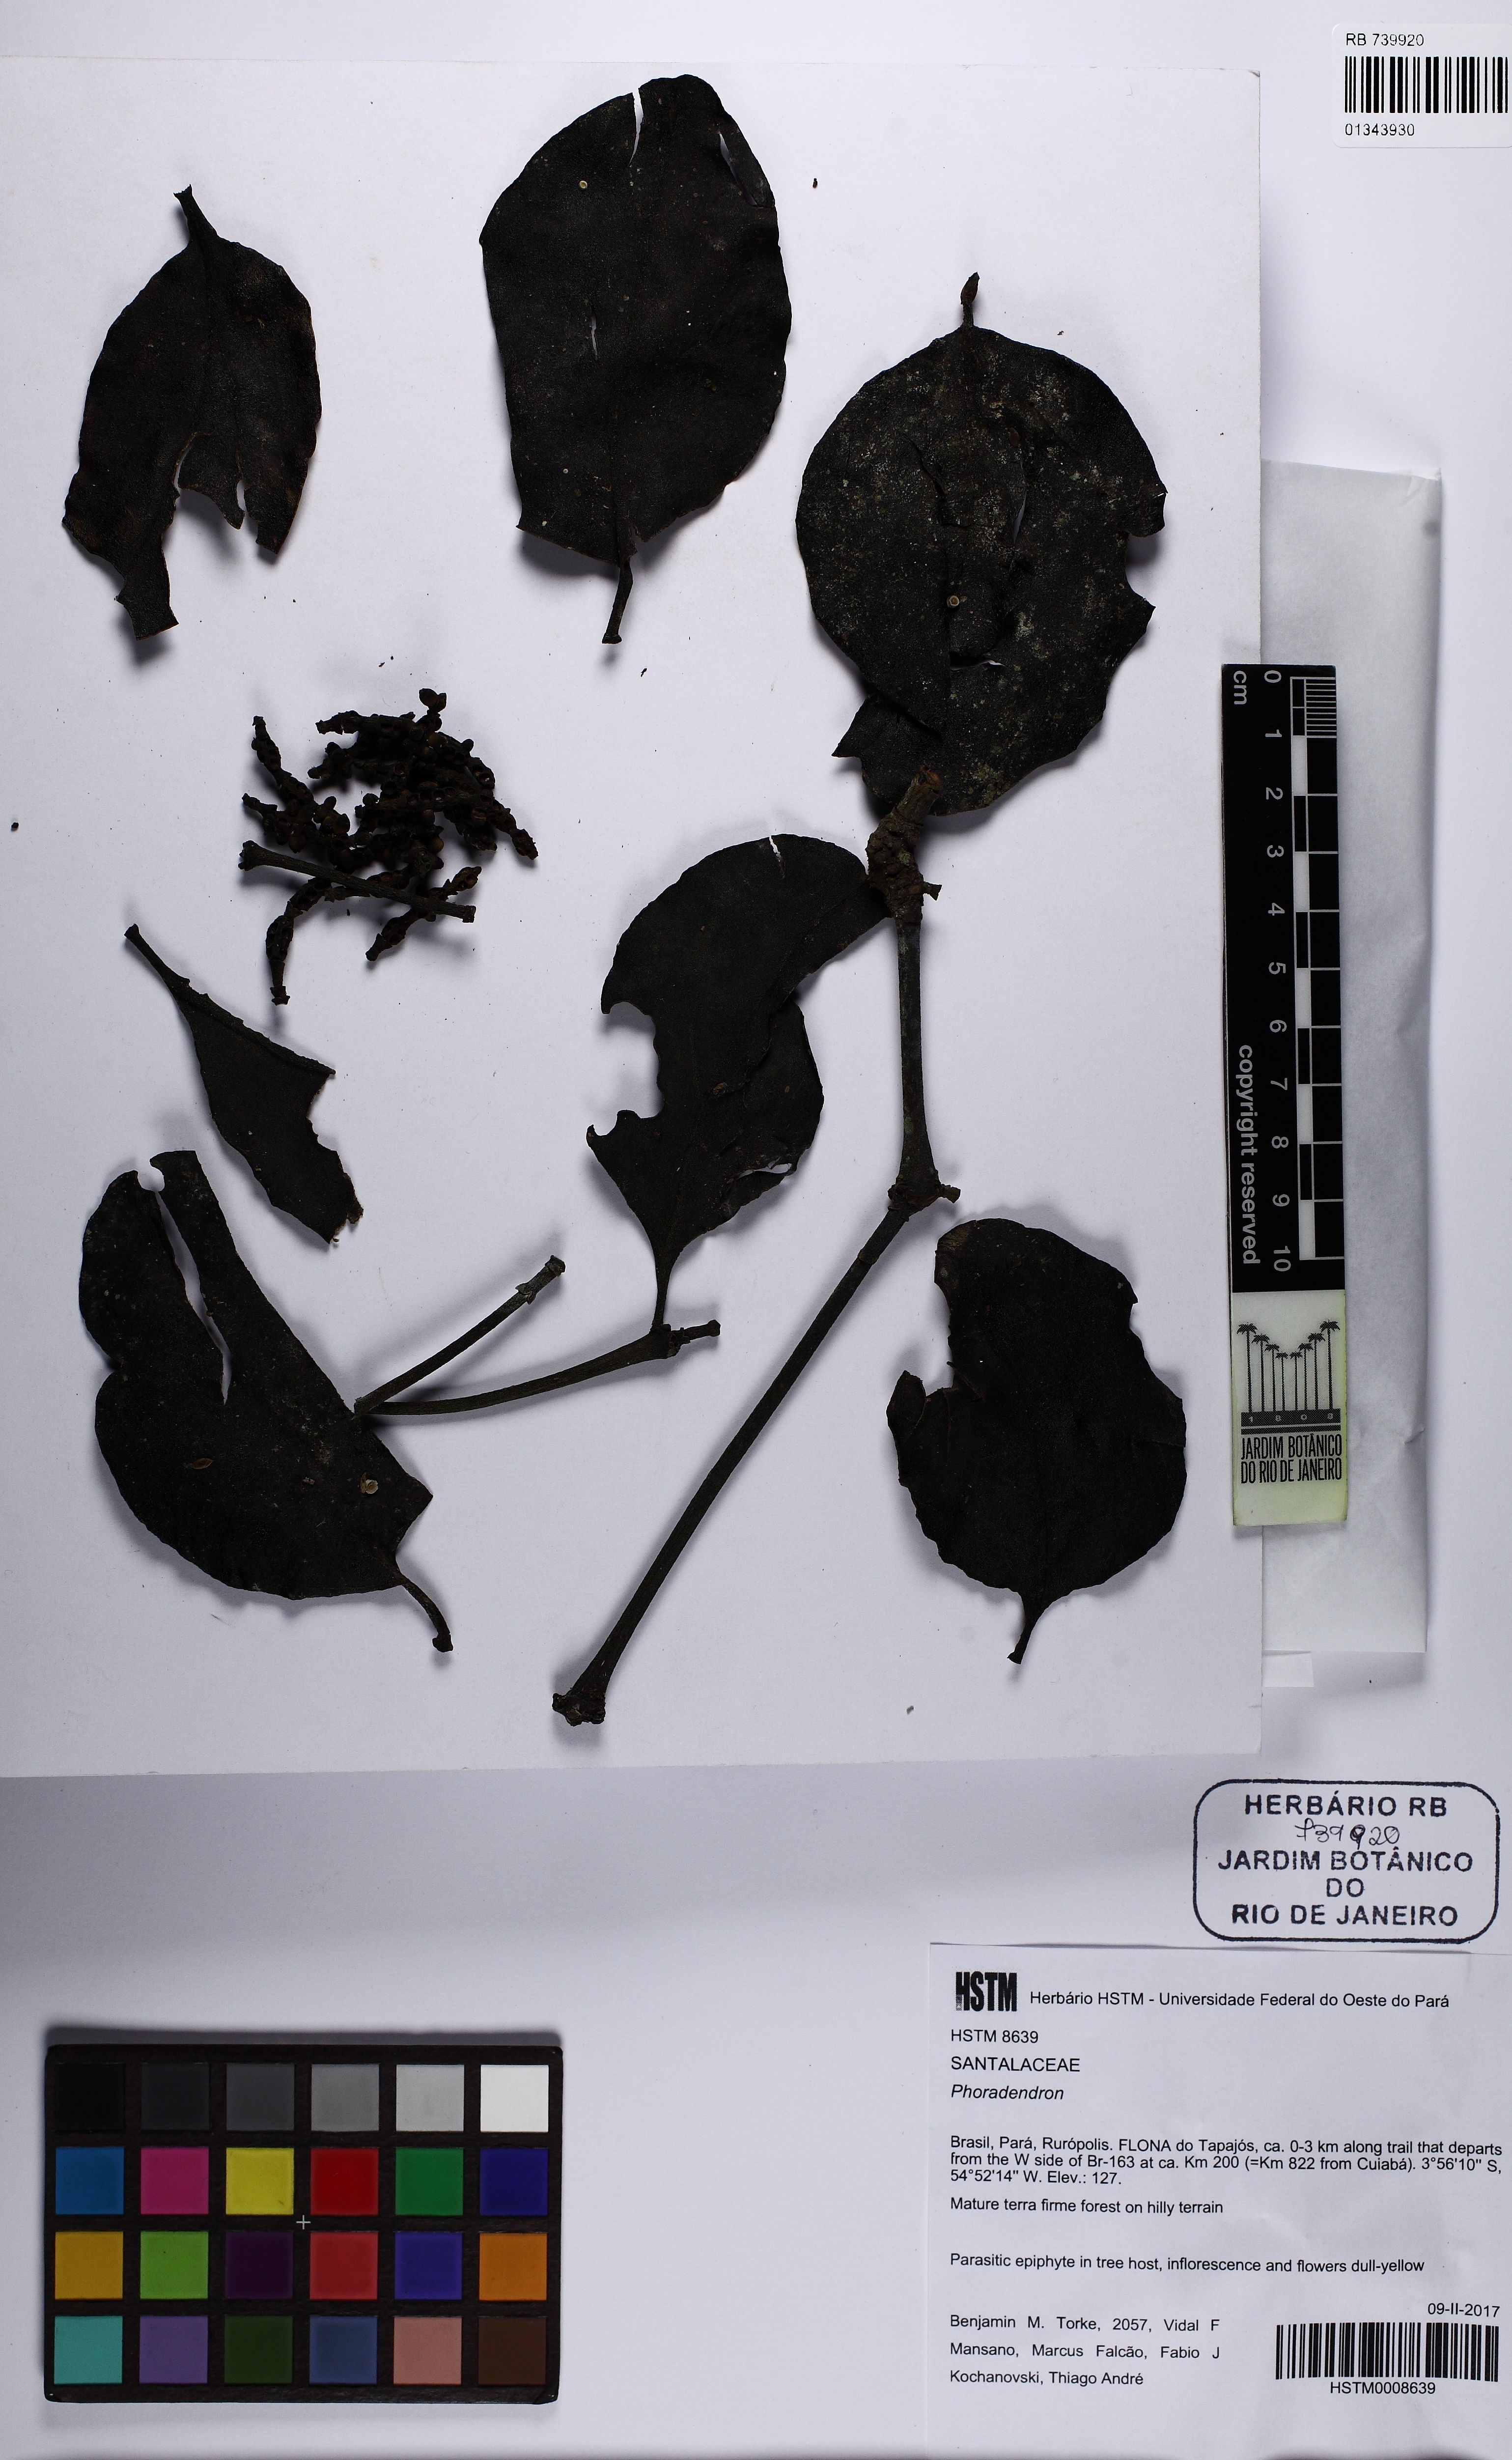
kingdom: Plantae
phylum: Tracheophyta
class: Magnoliopsida
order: Santalales
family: Viscaceae
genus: Phoradendron
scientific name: Phoradendron racemosum
